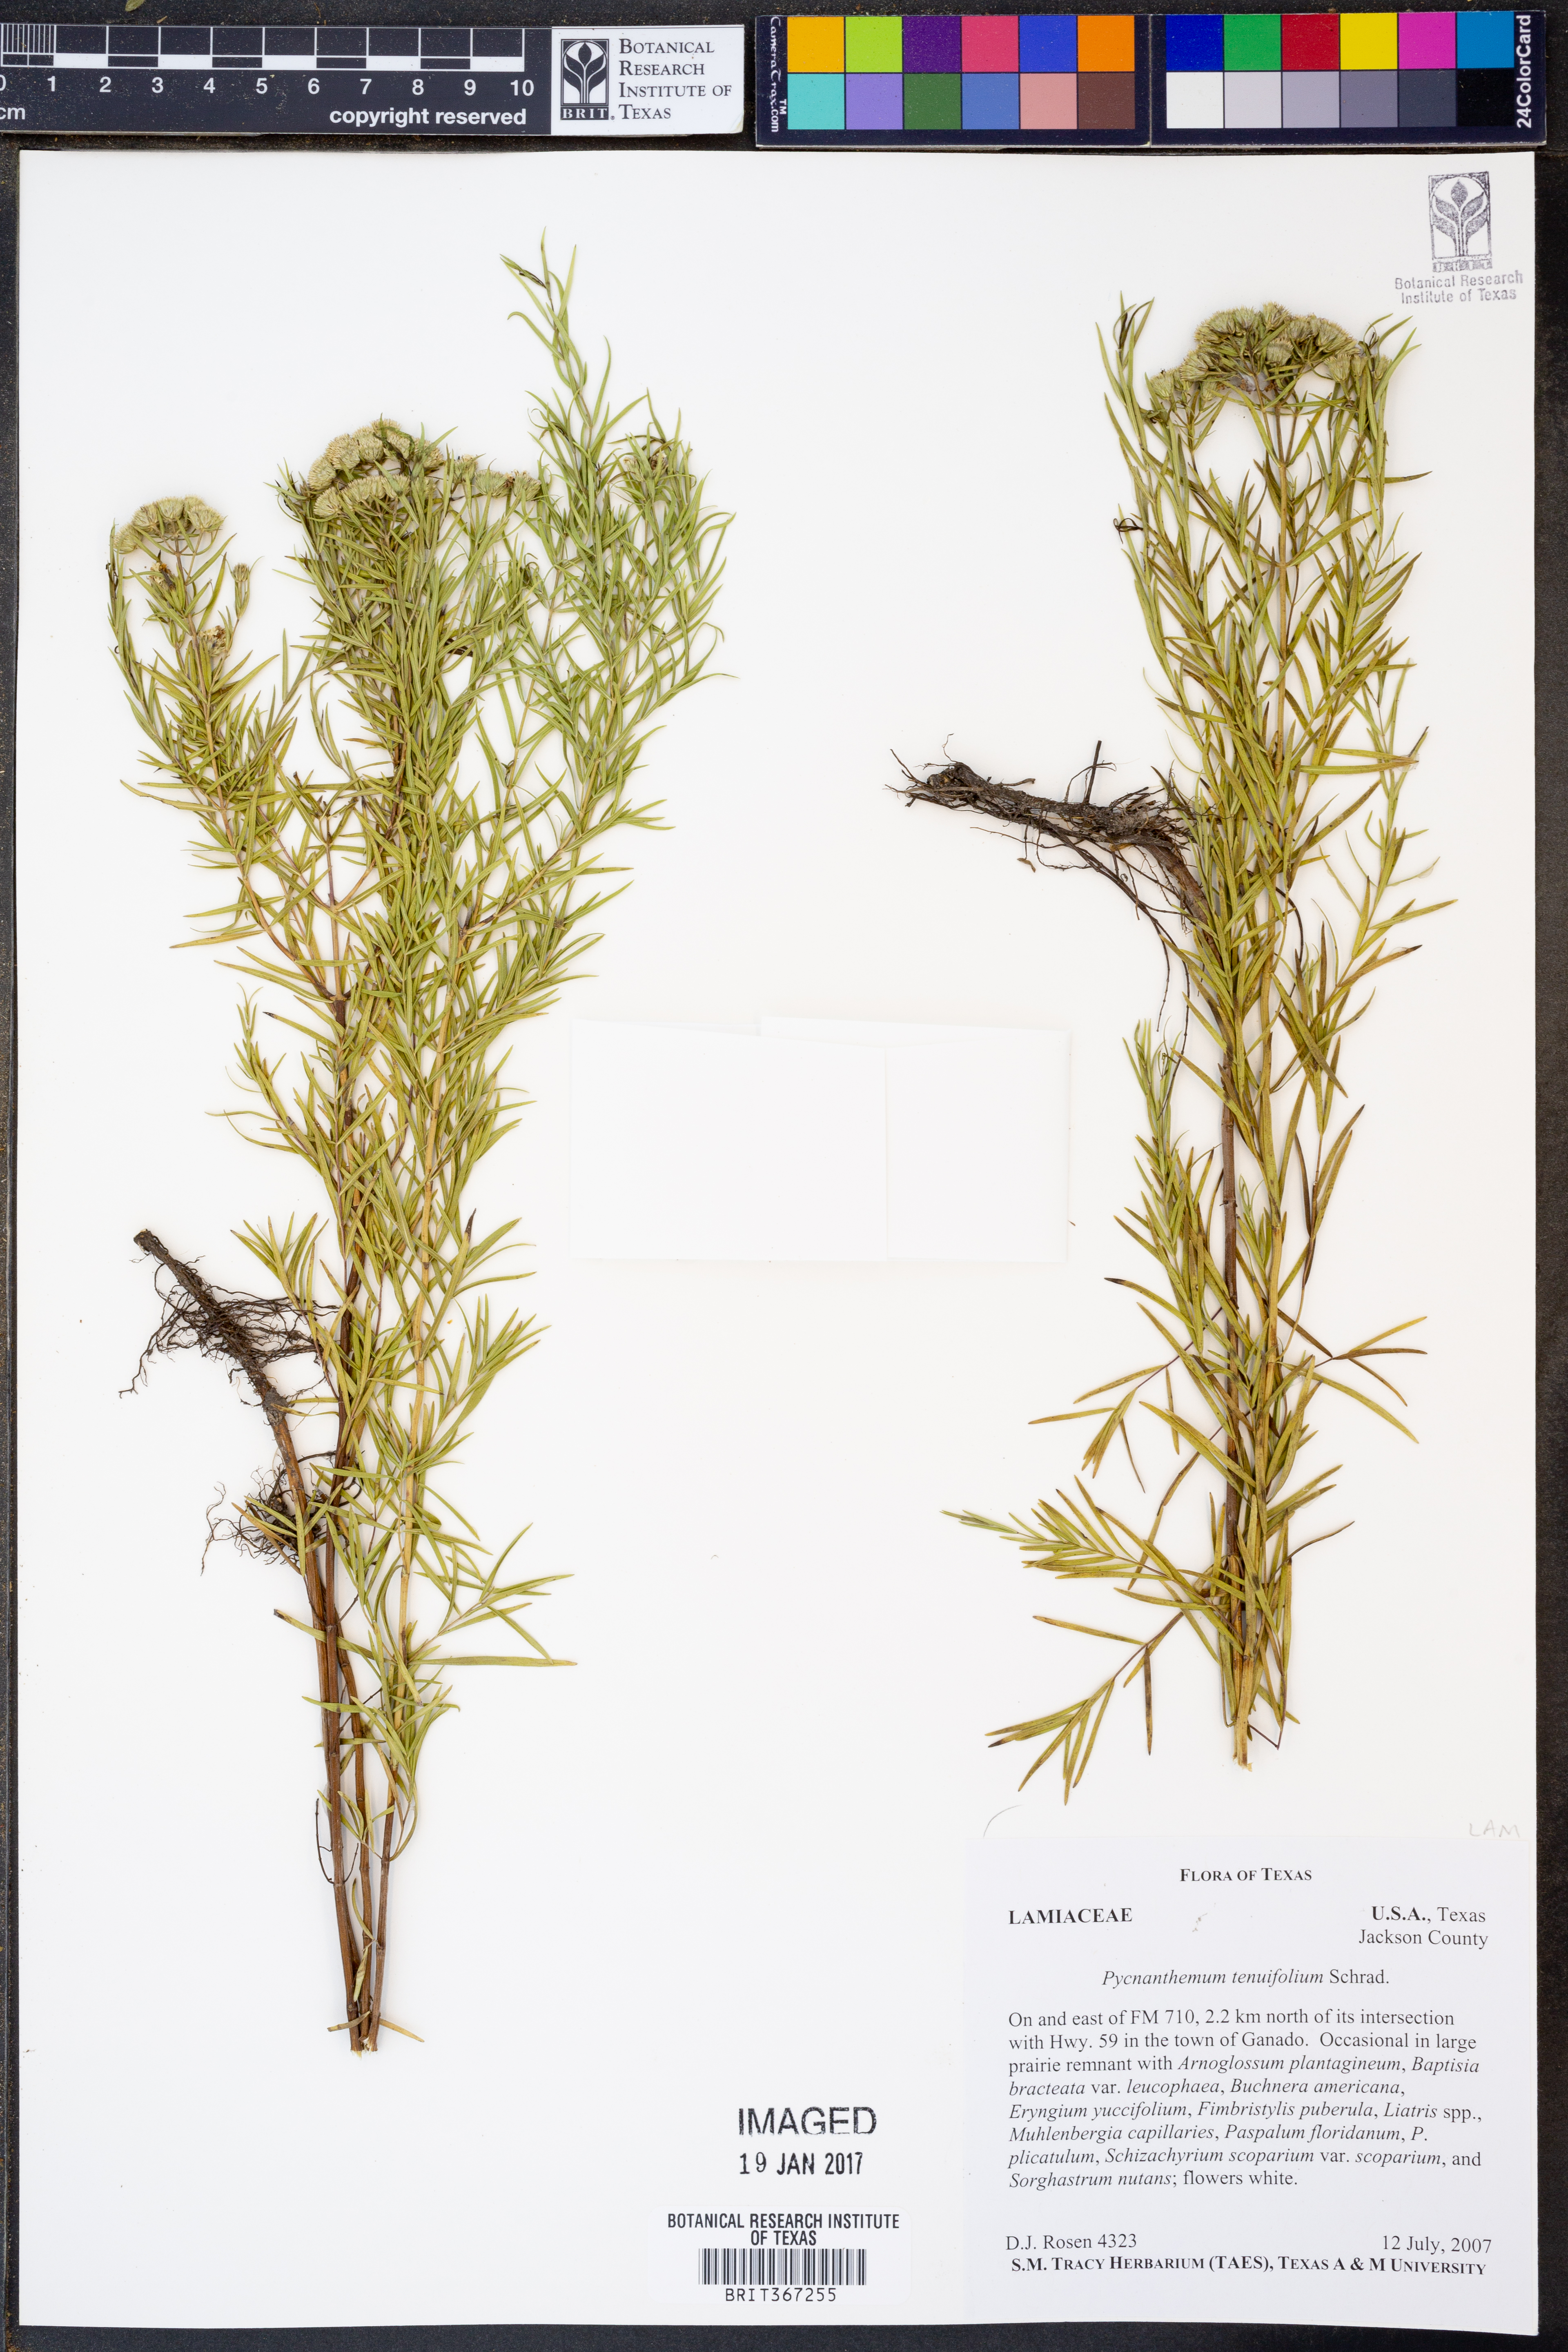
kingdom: Plantae
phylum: Tracheophyta
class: Magnoliopsida
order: Lamiales
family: Lamiaceae
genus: Pycnanthemum
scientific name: Pycnanthemum tenuifolium
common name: Narrow-leaf mountain-mint
